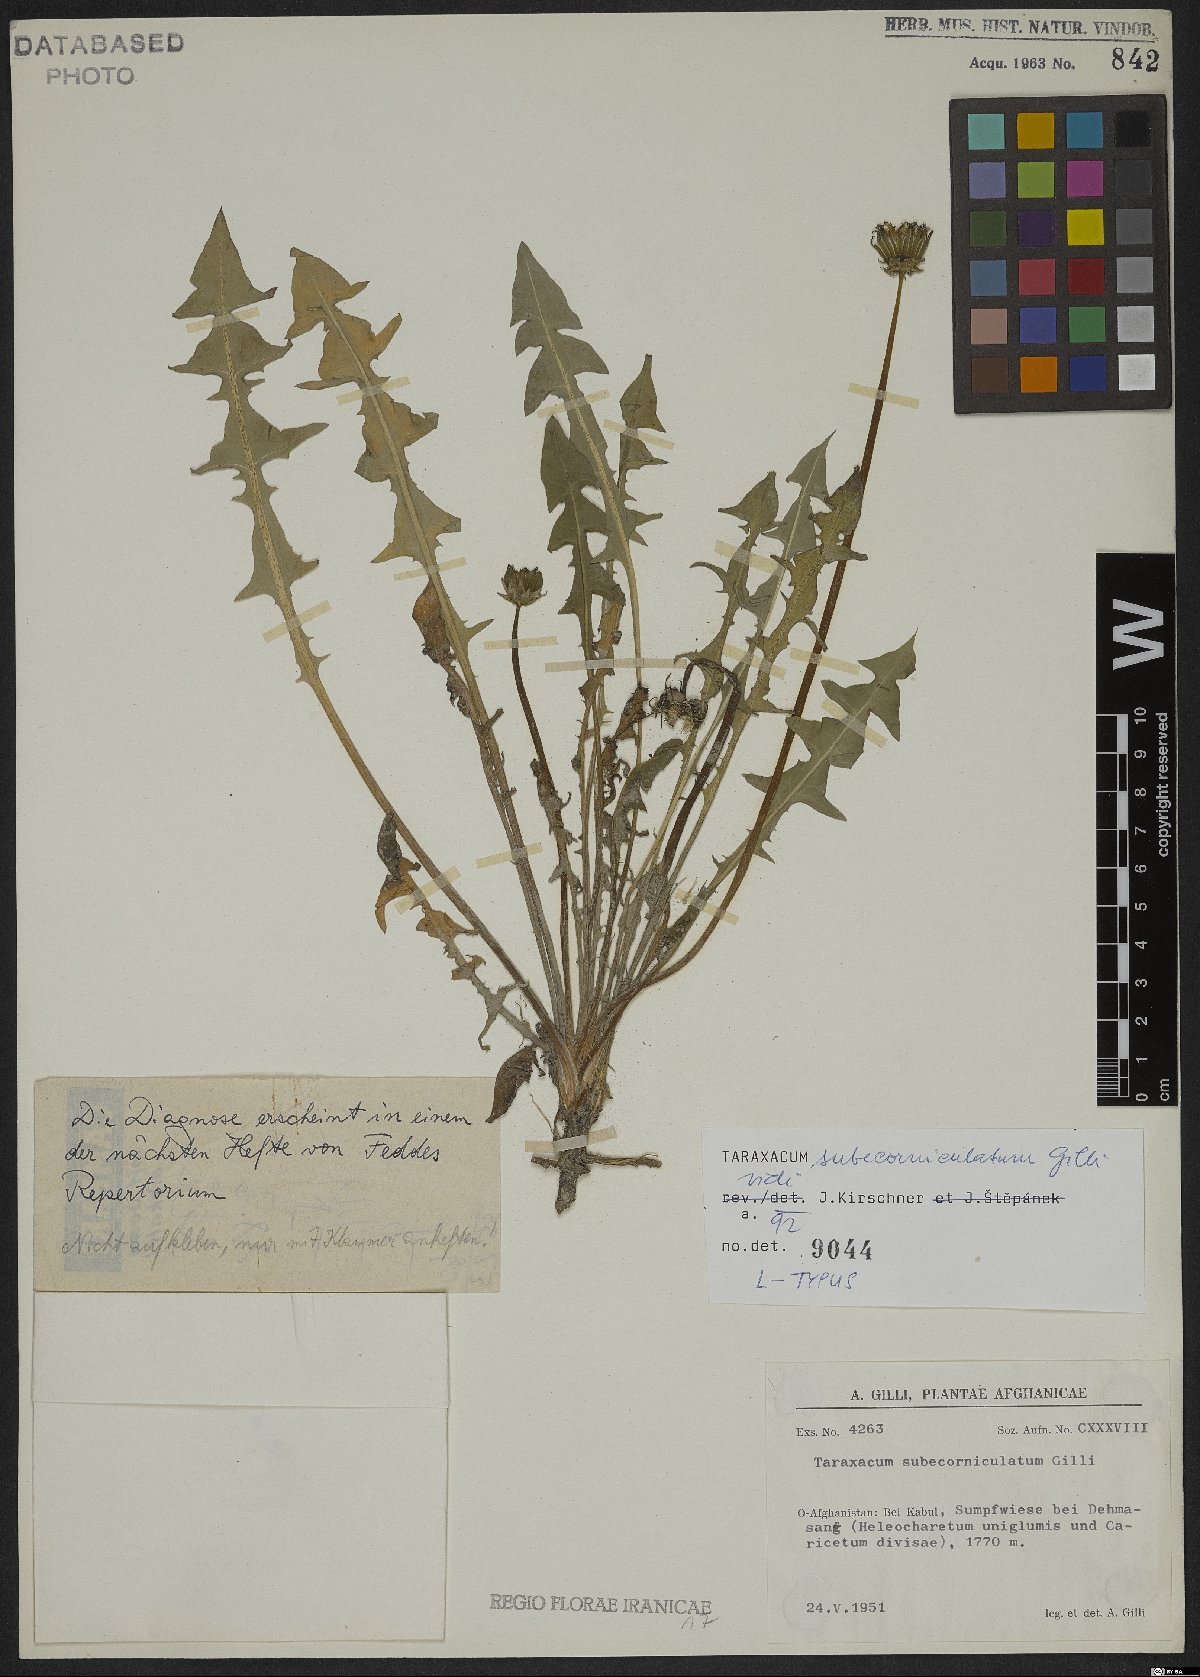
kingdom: Plantae
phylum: Tracheophyta
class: Magnoliopsida
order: Asterales
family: Asteraceae
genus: Taraxacum
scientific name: Taraxacum subecorniculatum
